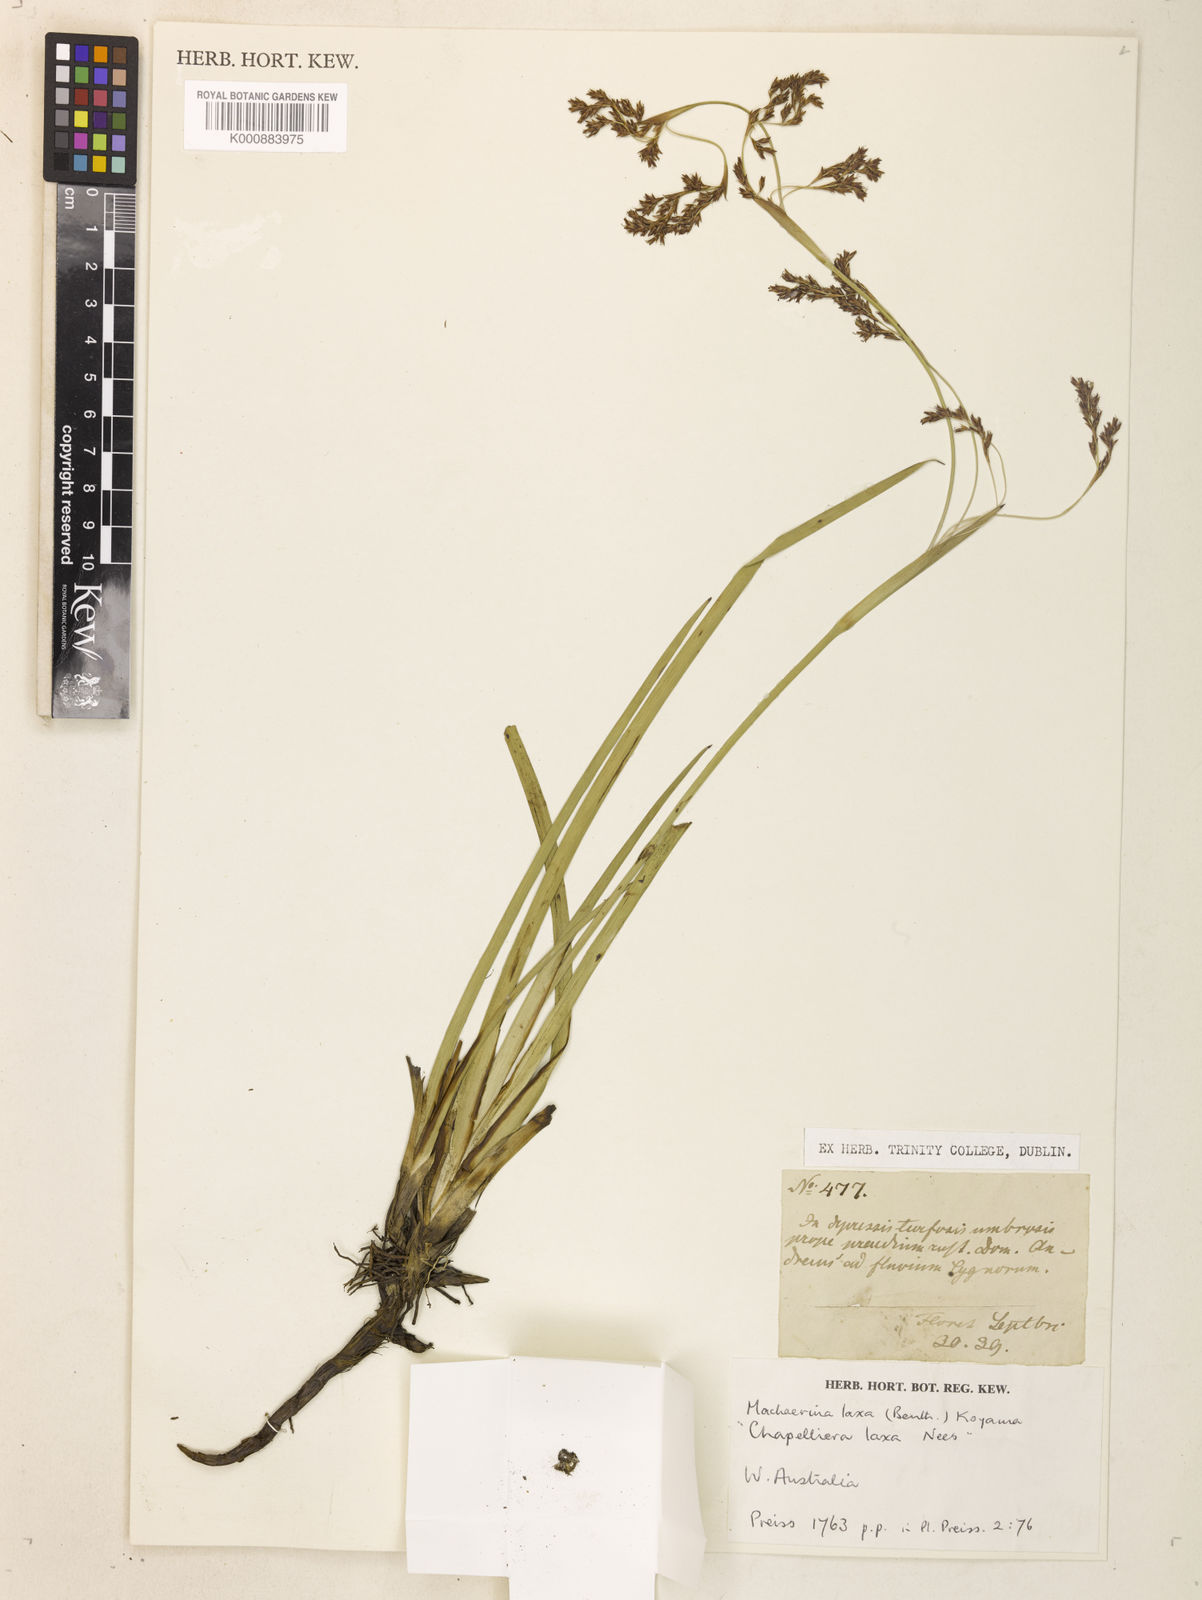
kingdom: Plantae
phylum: Tracheophyta
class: Liliopsida
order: Poales
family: Cyperaceae
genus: Machaerina
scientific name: Machaerina laxa
